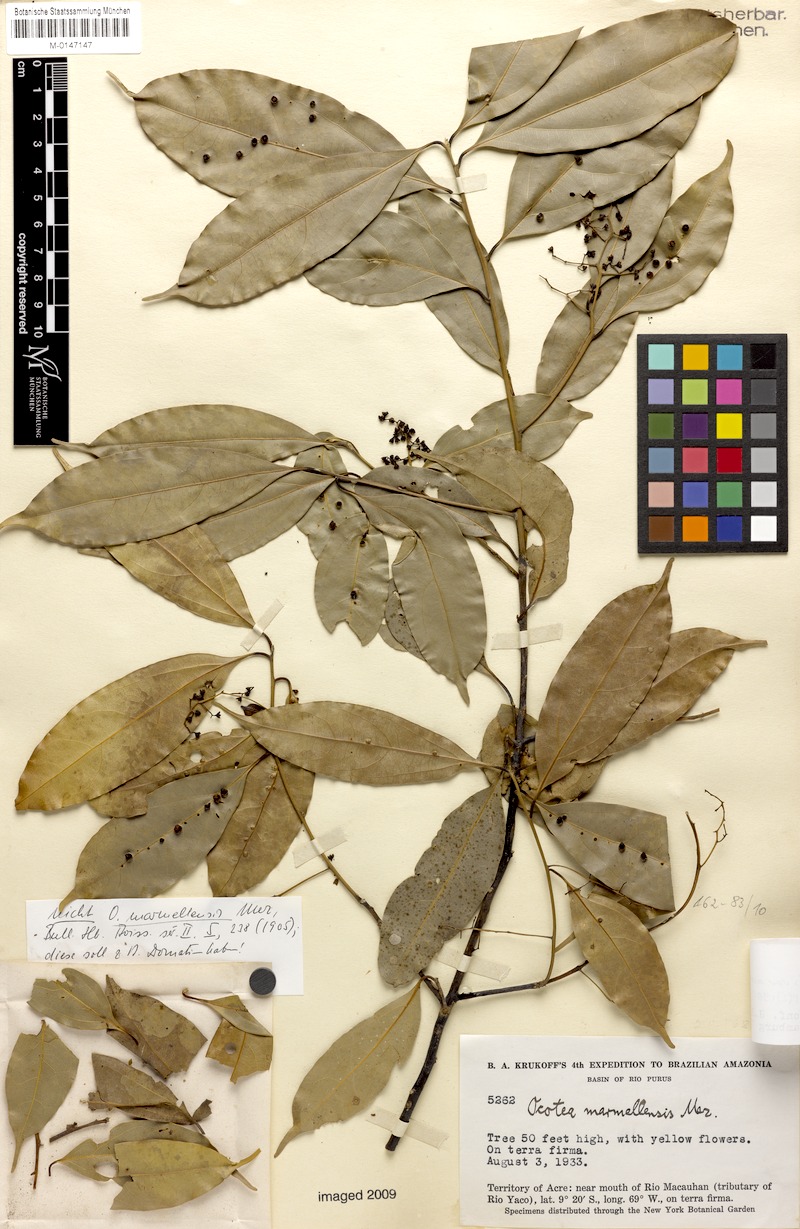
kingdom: Plantae
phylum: Tracheophyta
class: Magnoliopsida
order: Laurales
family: Lauraceae
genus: Ocotea
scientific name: Ocotea leptobotra
